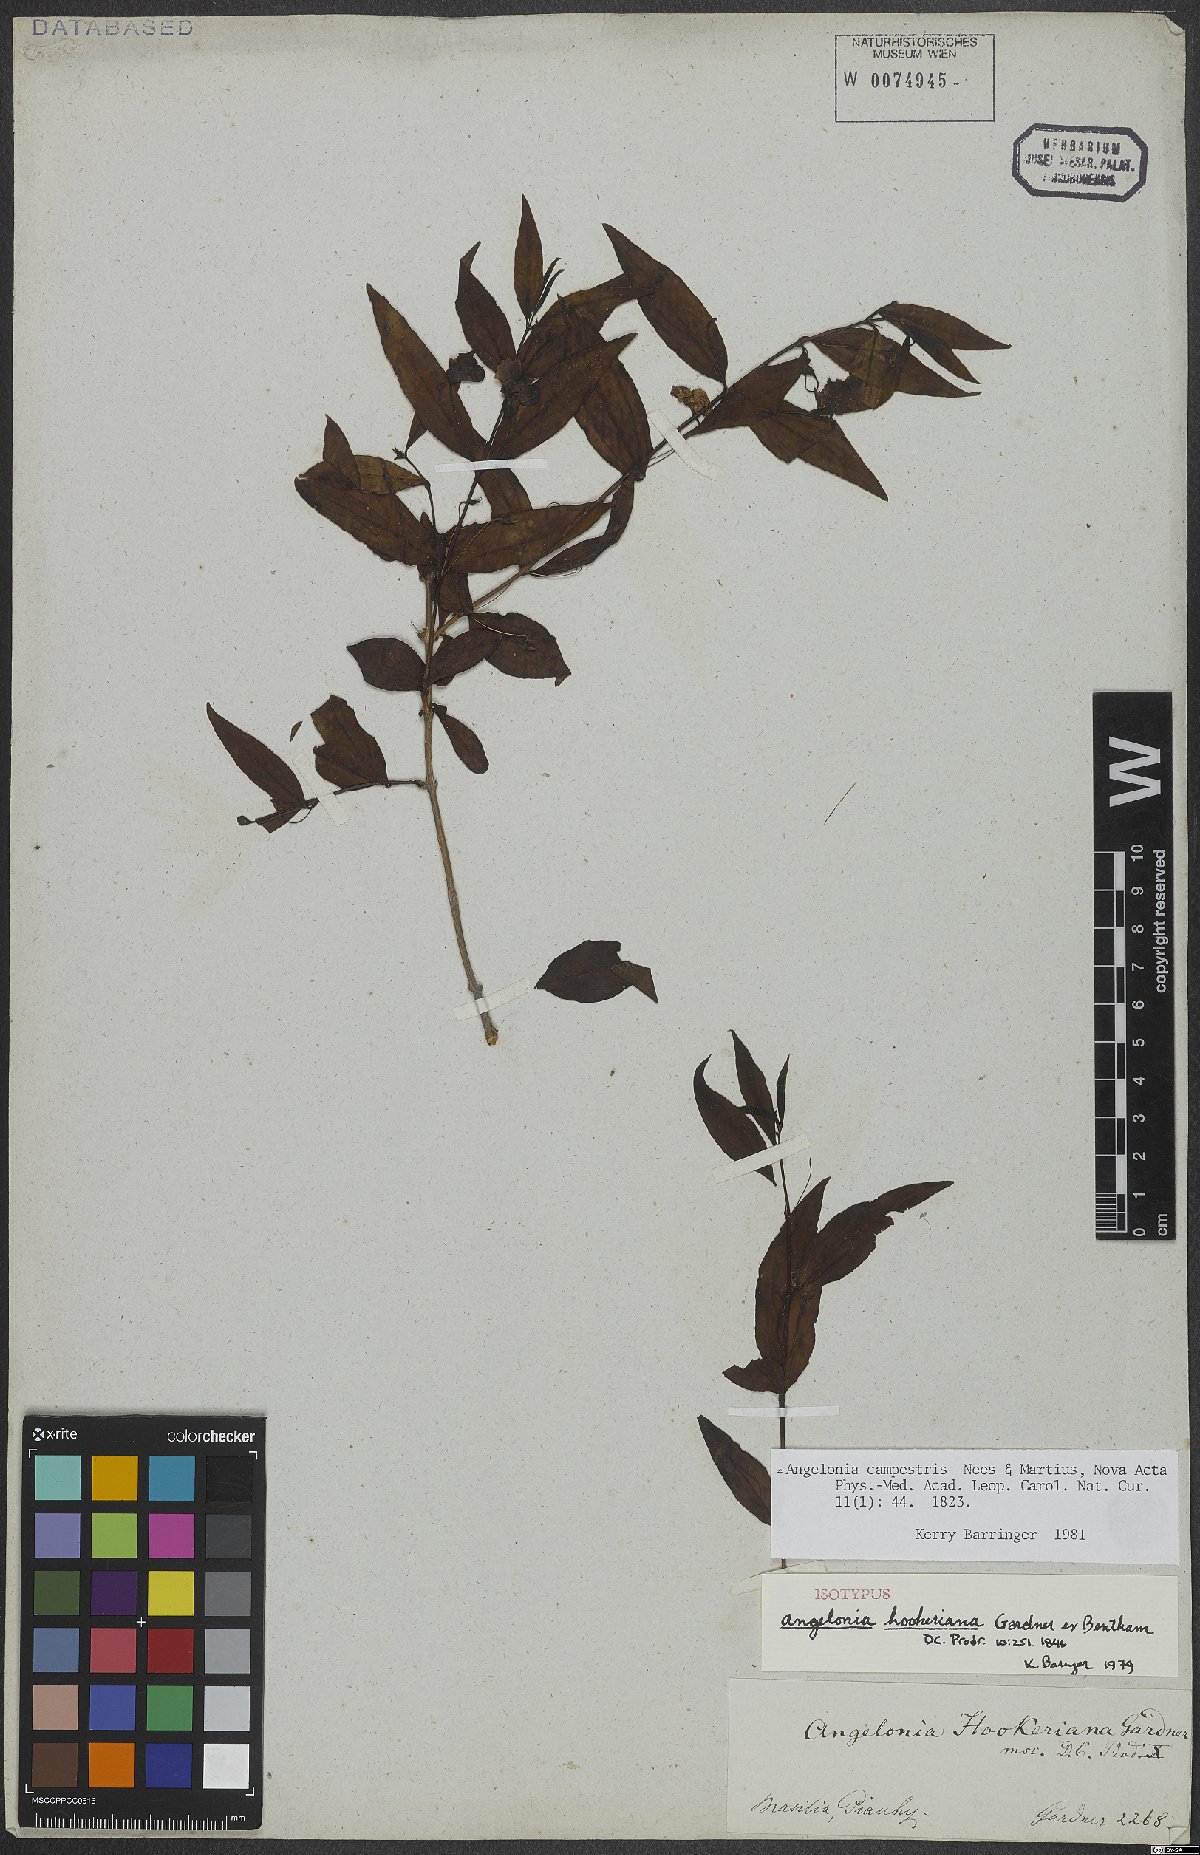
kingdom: Plantae
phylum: Tracheophyta
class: Magnoliopsida
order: Lamiales
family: Plantaginaceae
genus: Angelonia
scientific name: Angelonia campestris
